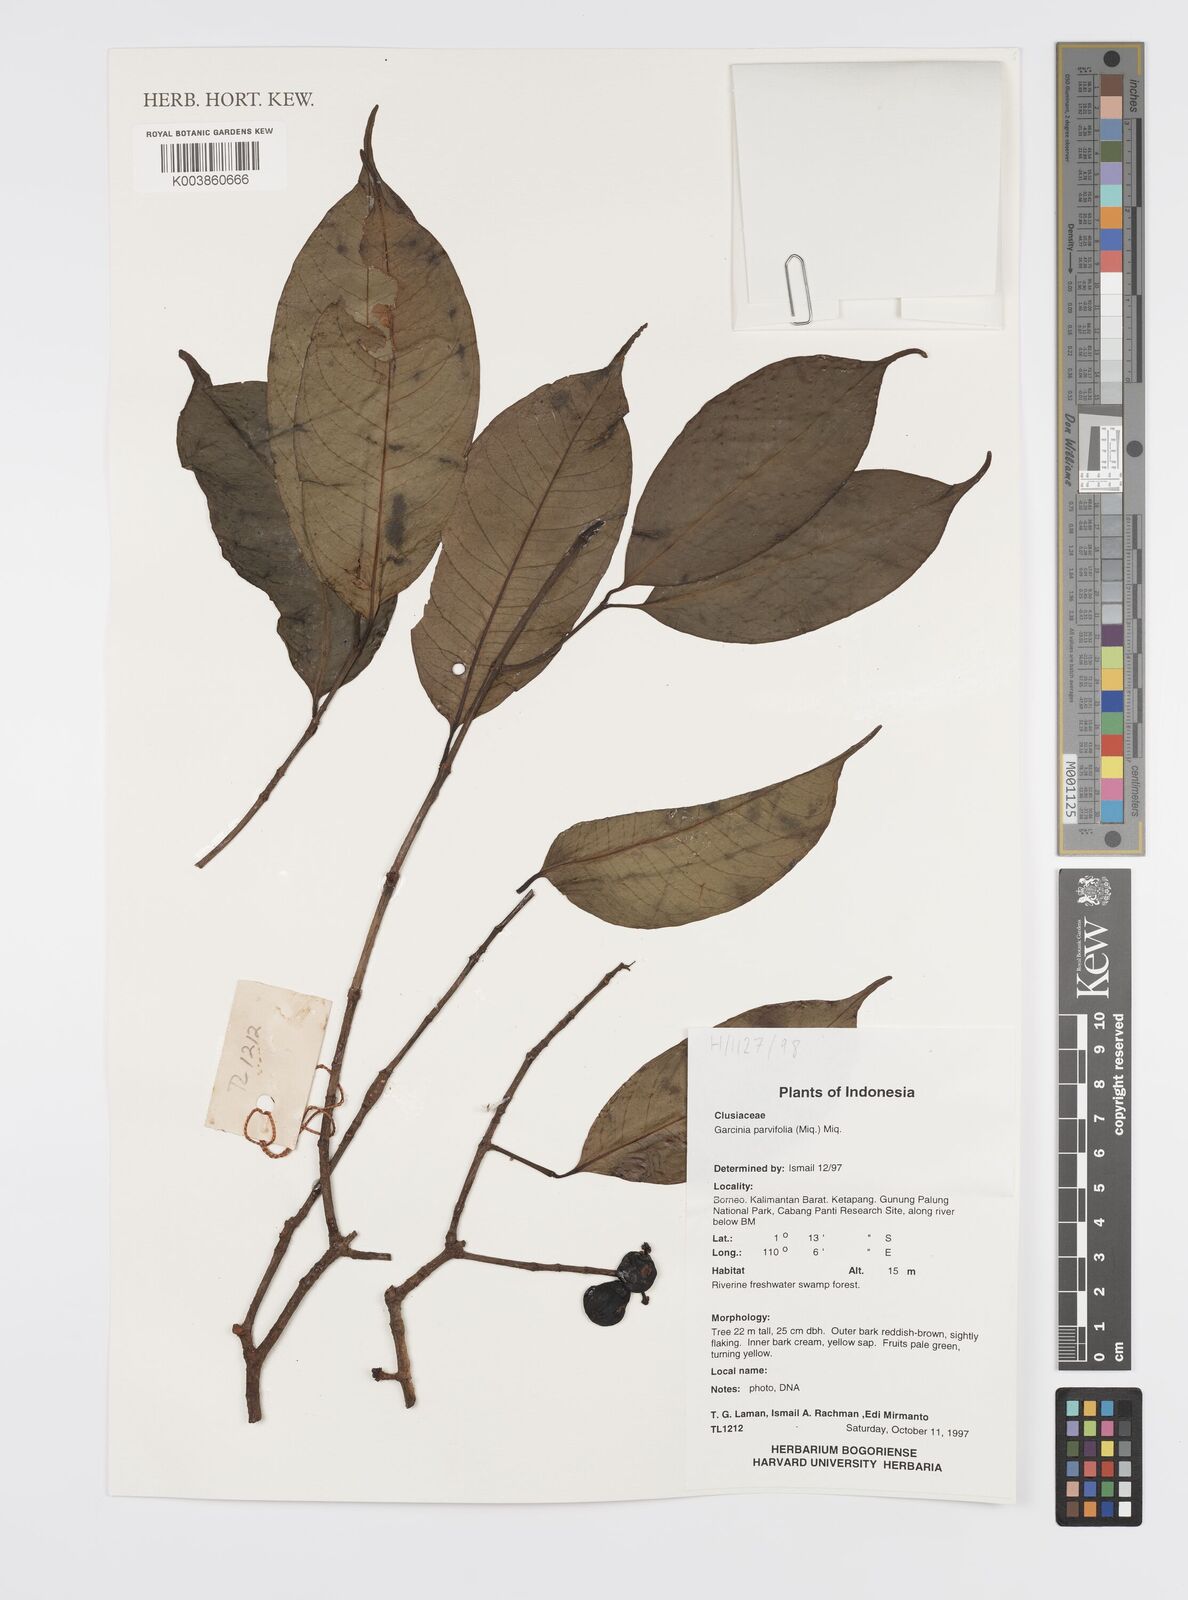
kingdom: Plantae
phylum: Tracheophyta
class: Magnoliopsida
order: Malpighiales
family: Clusiaceae
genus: Garcinia
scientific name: Garcinia parvifolia
